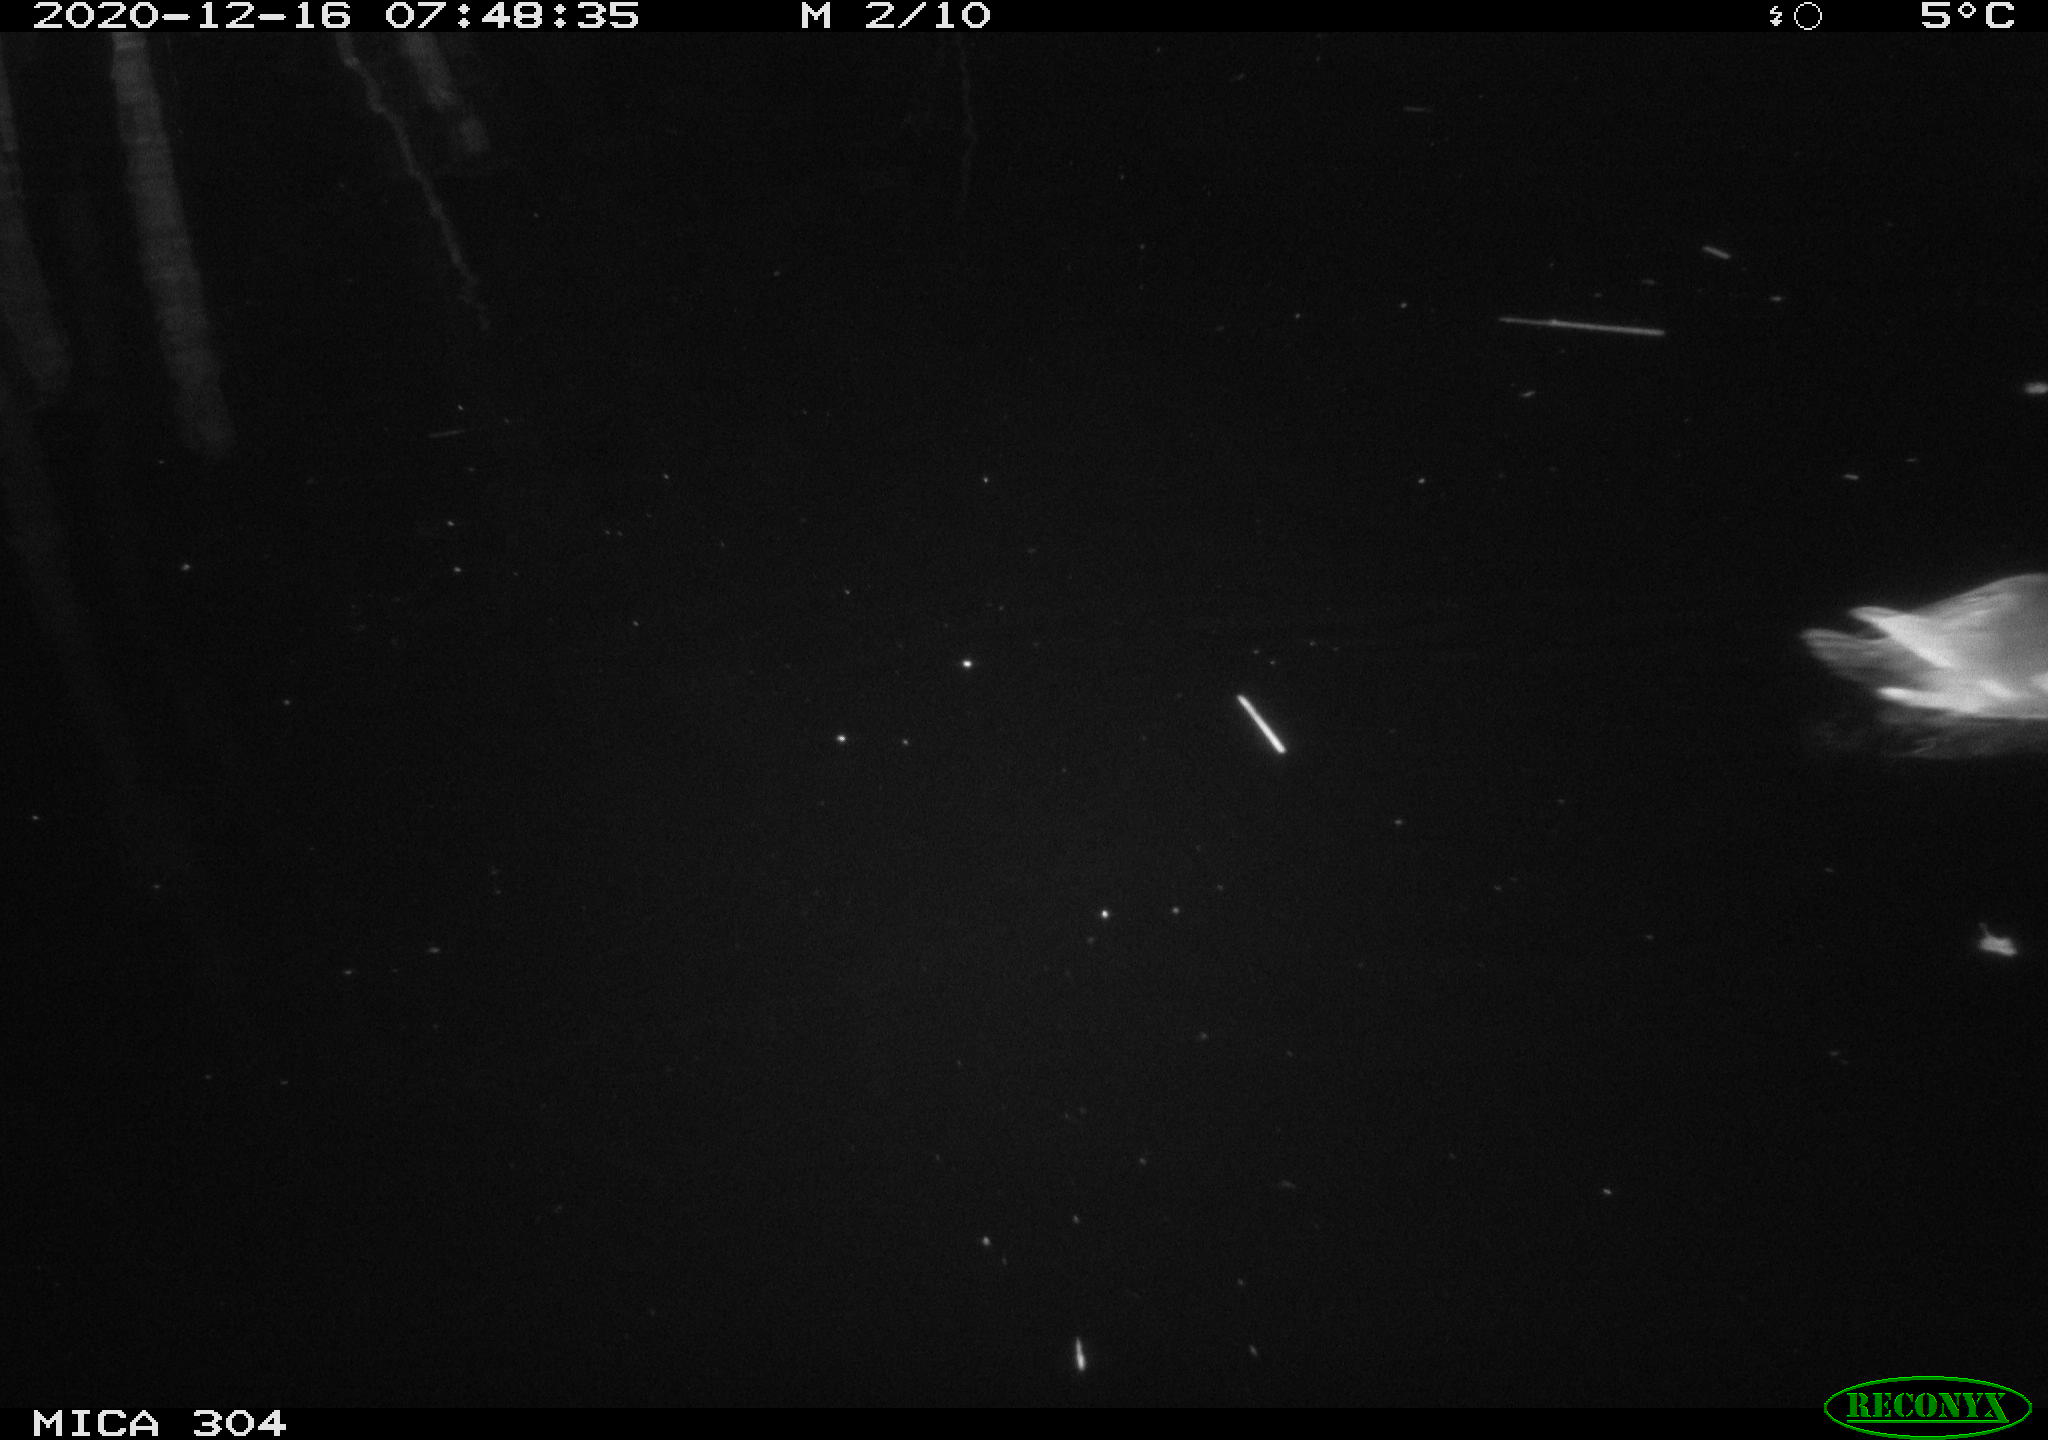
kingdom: Animalia
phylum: Chordata
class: Aves
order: Gruiformes
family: Rallidae
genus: Gallinula
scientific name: Gallinula chloropus
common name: Common moorhen
